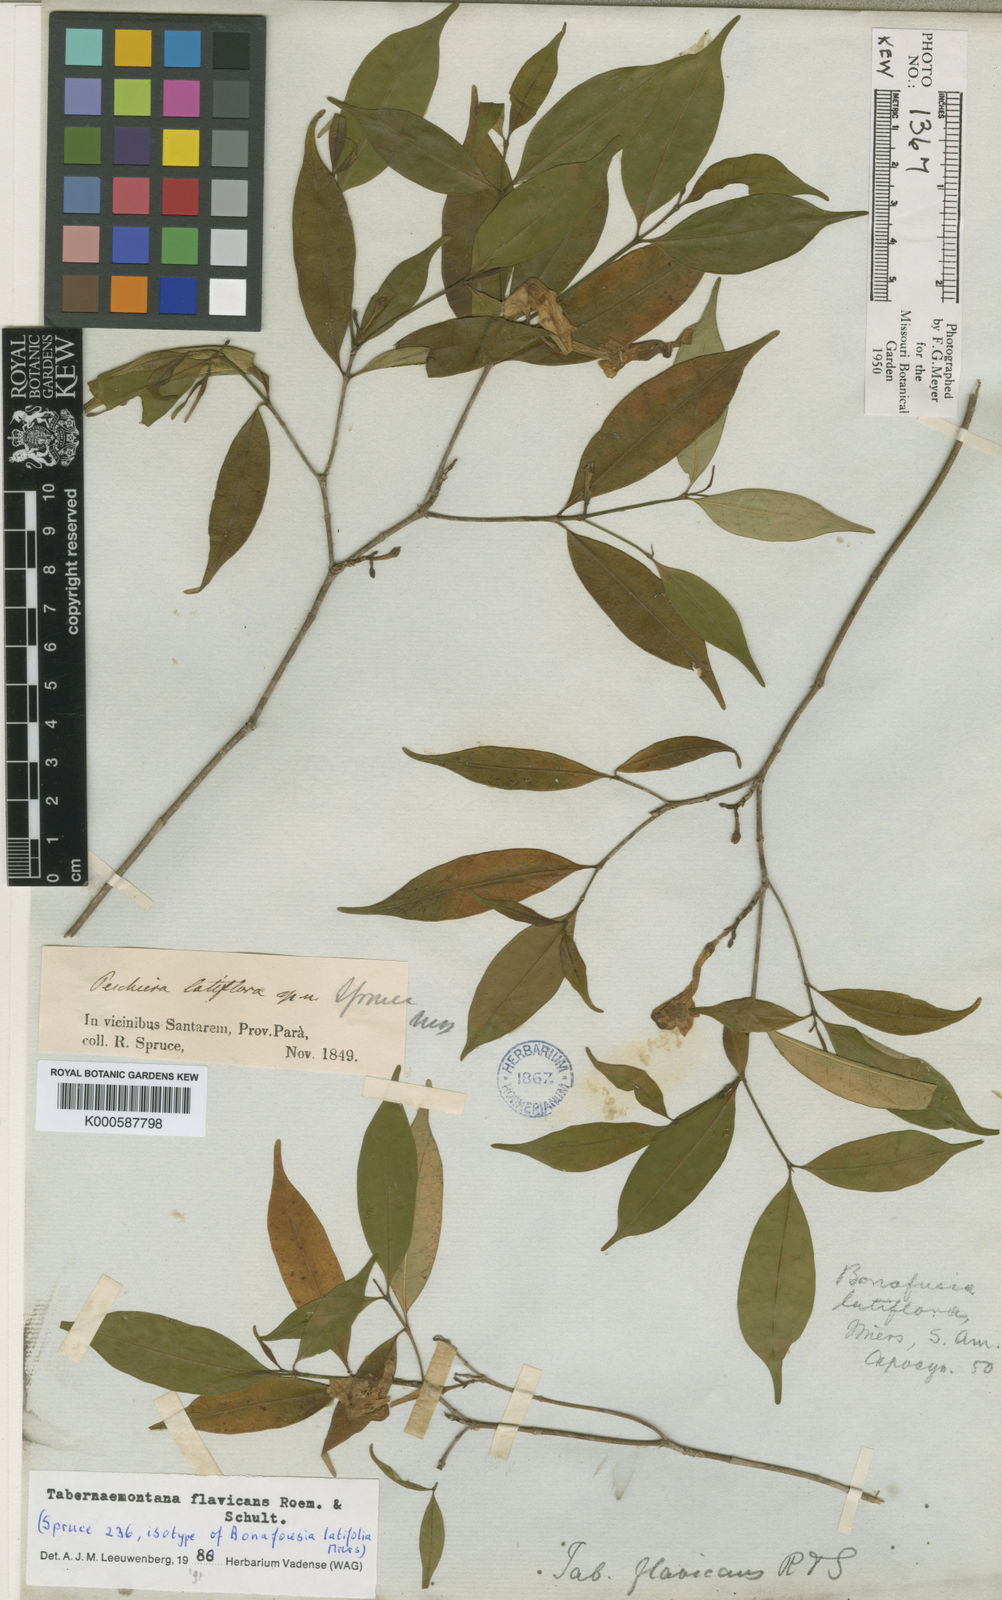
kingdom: Plantae
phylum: Tracheophyta
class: Magnoliopsida
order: Gentianales
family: Apocynaceae
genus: Tabernaemontana
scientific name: Tabernaemontana flavicans
